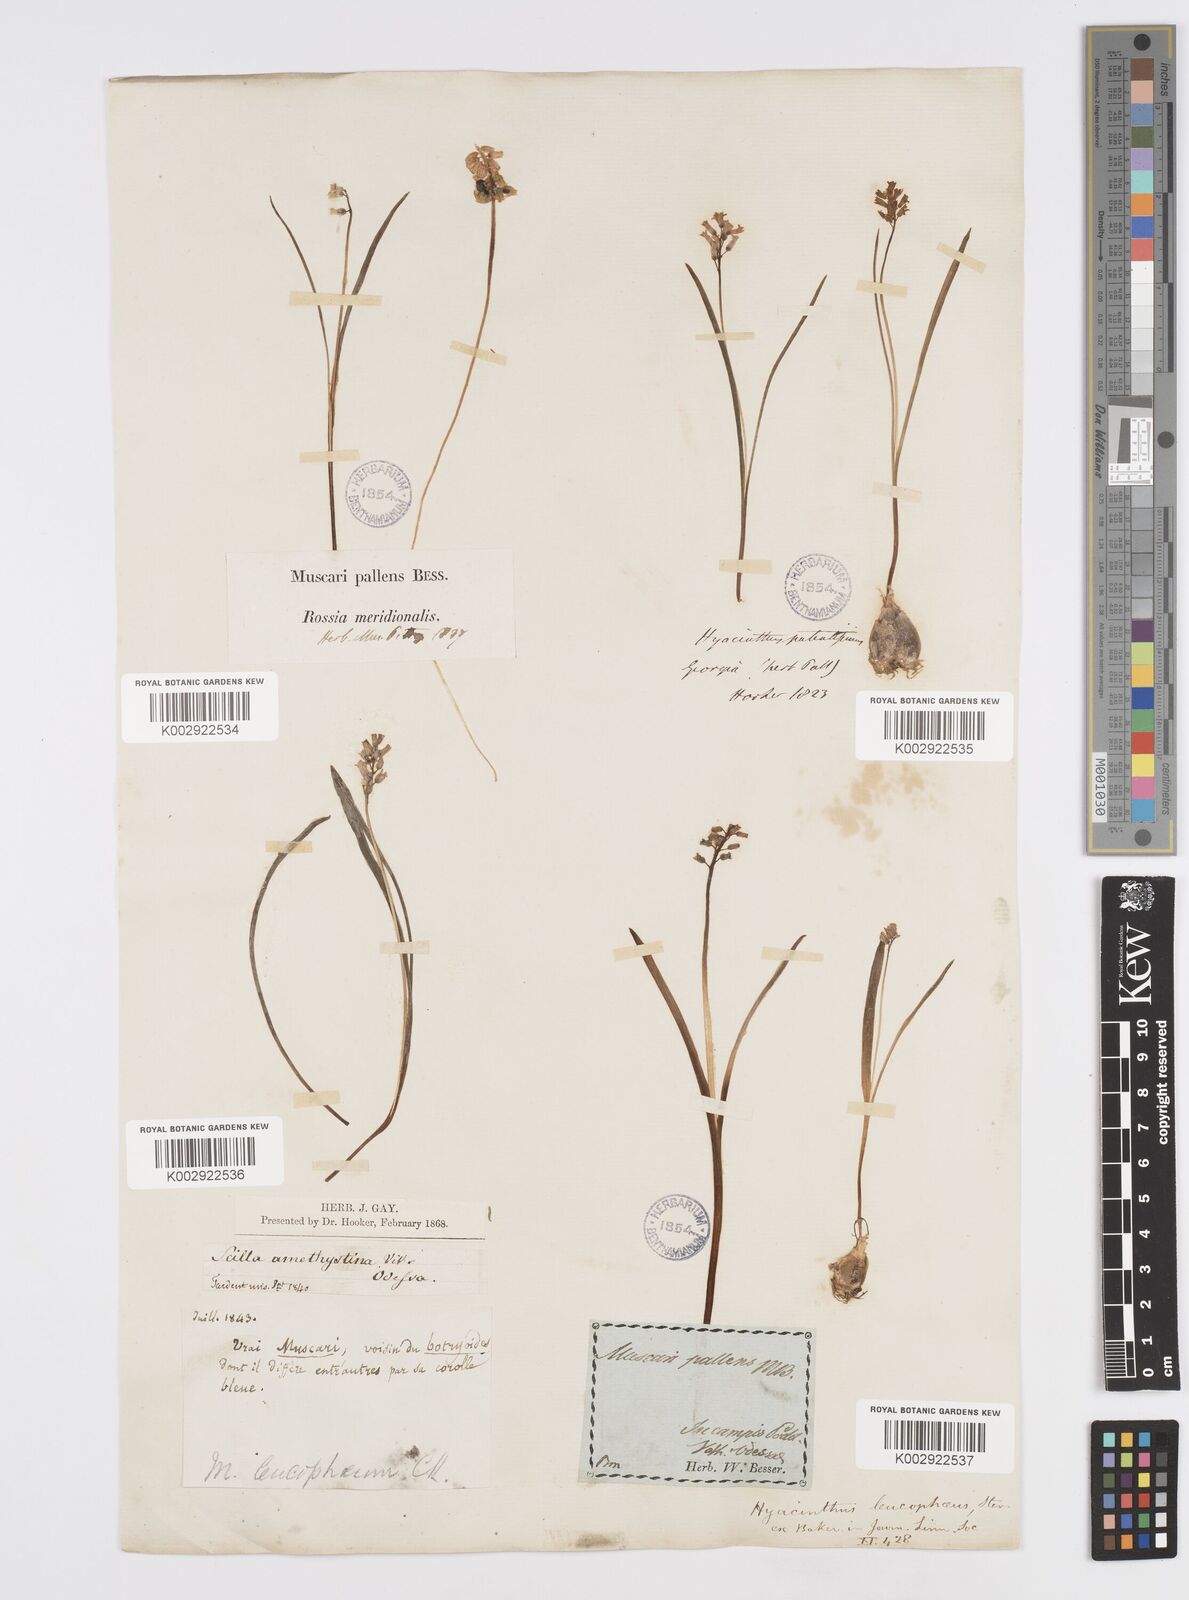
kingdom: Plantae
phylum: Tracheophyta
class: Liliopsida
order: Asparagales
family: Asparagaceae
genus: Hyacinthella
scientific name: Hyacinthella leucophaea
